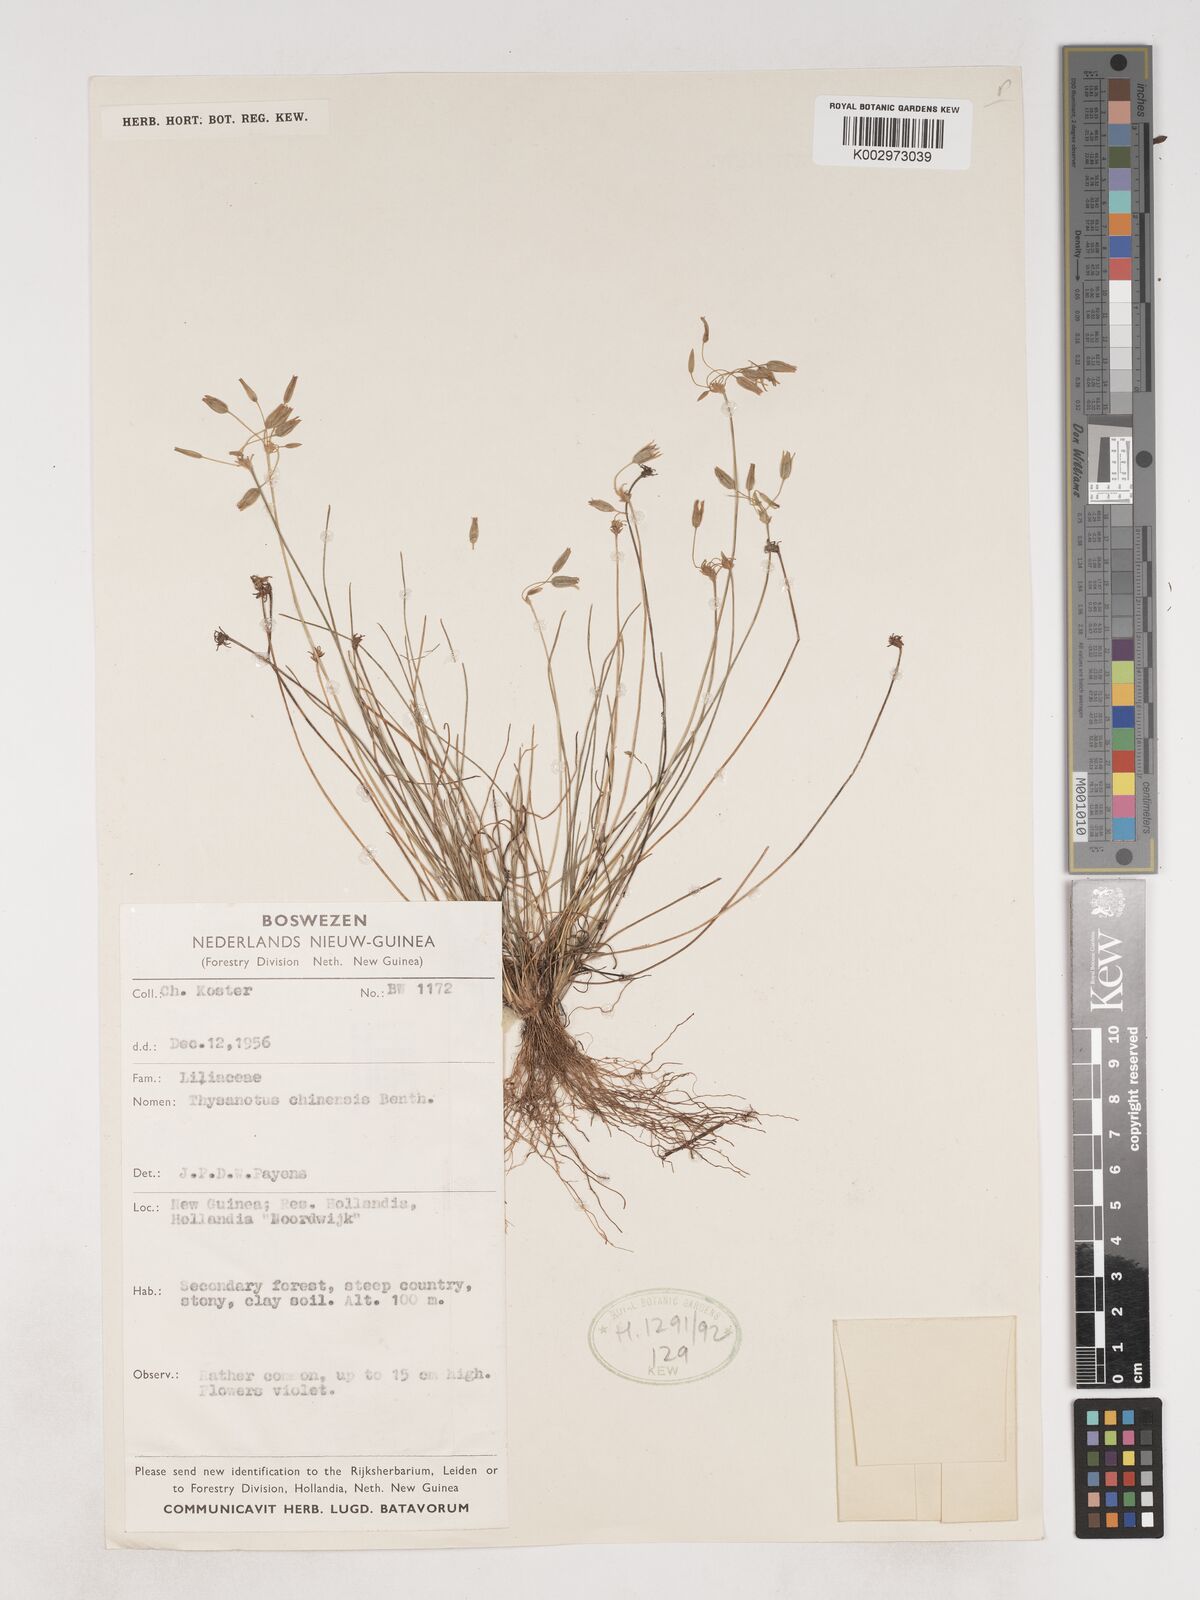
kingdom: Plantae
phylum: Tracheophyta
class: Liliopsida
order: Asparagales
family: Asparagaceae
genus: Thysanotus
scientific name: Thysanotus chinensis
